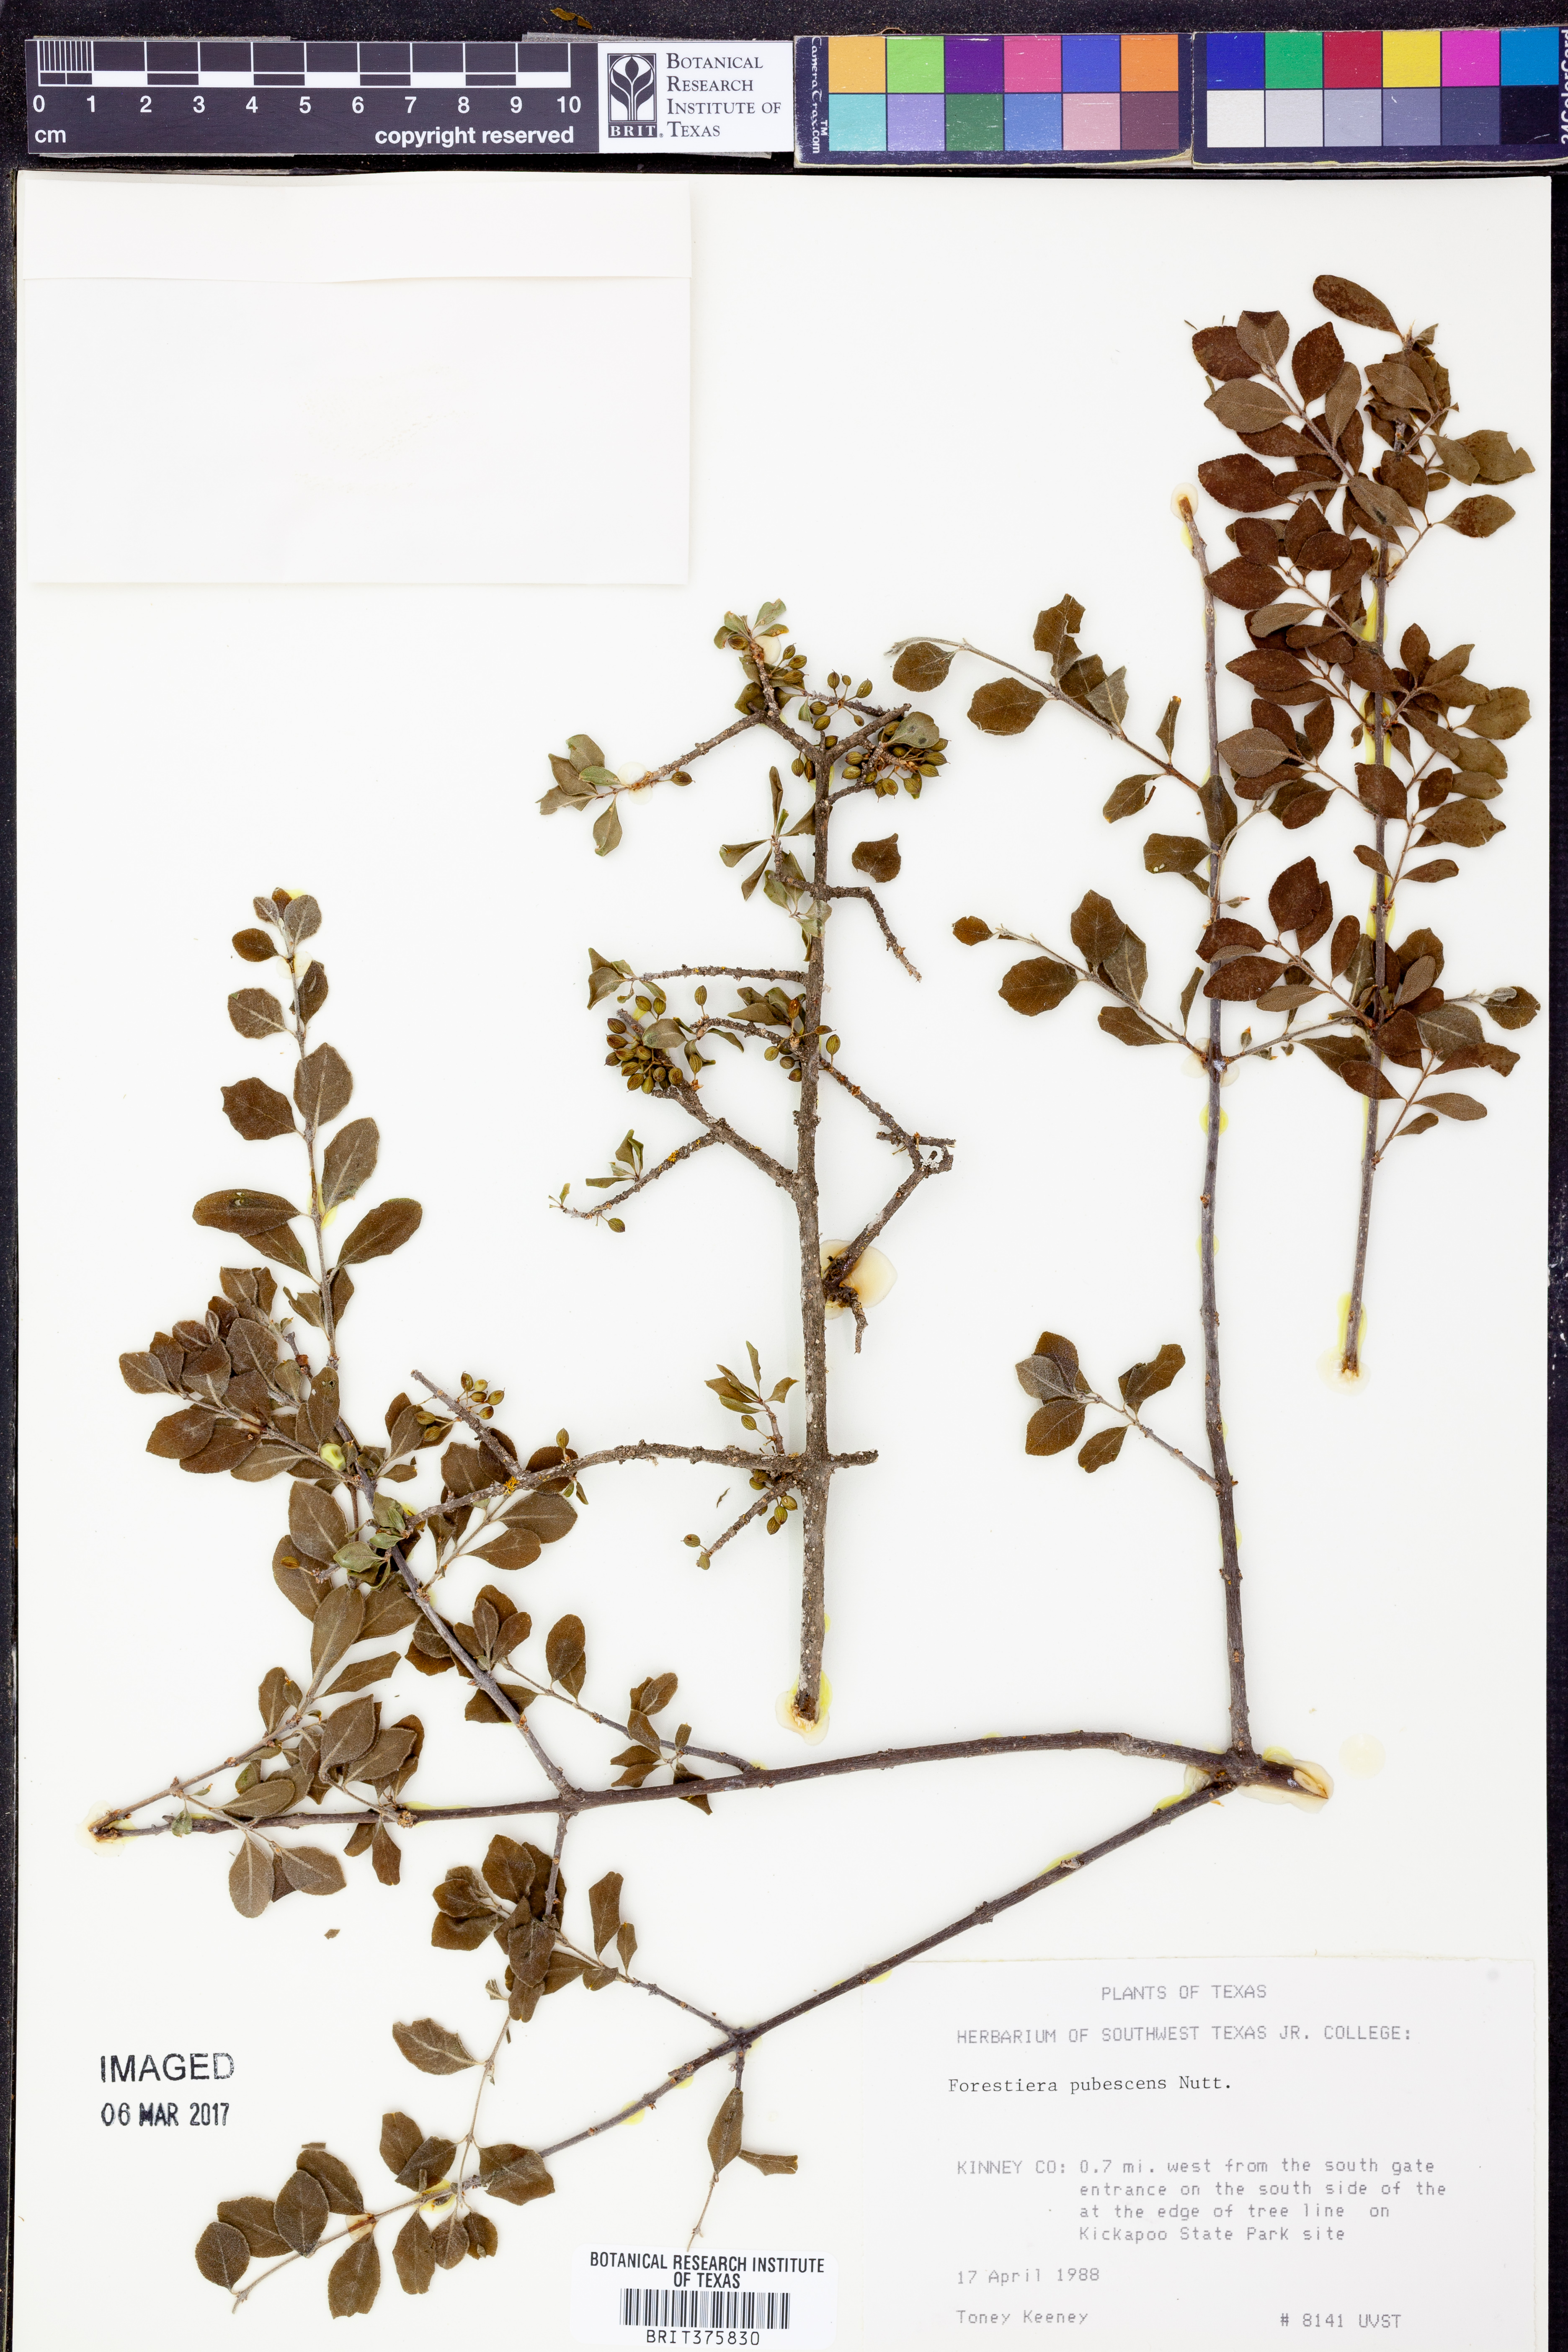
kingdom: Plantae
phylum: Tracheophyta
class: Magnoliopsida
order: Lamiales
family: Oleaceae
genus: Forestiera
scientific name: Forestiera pubescens
